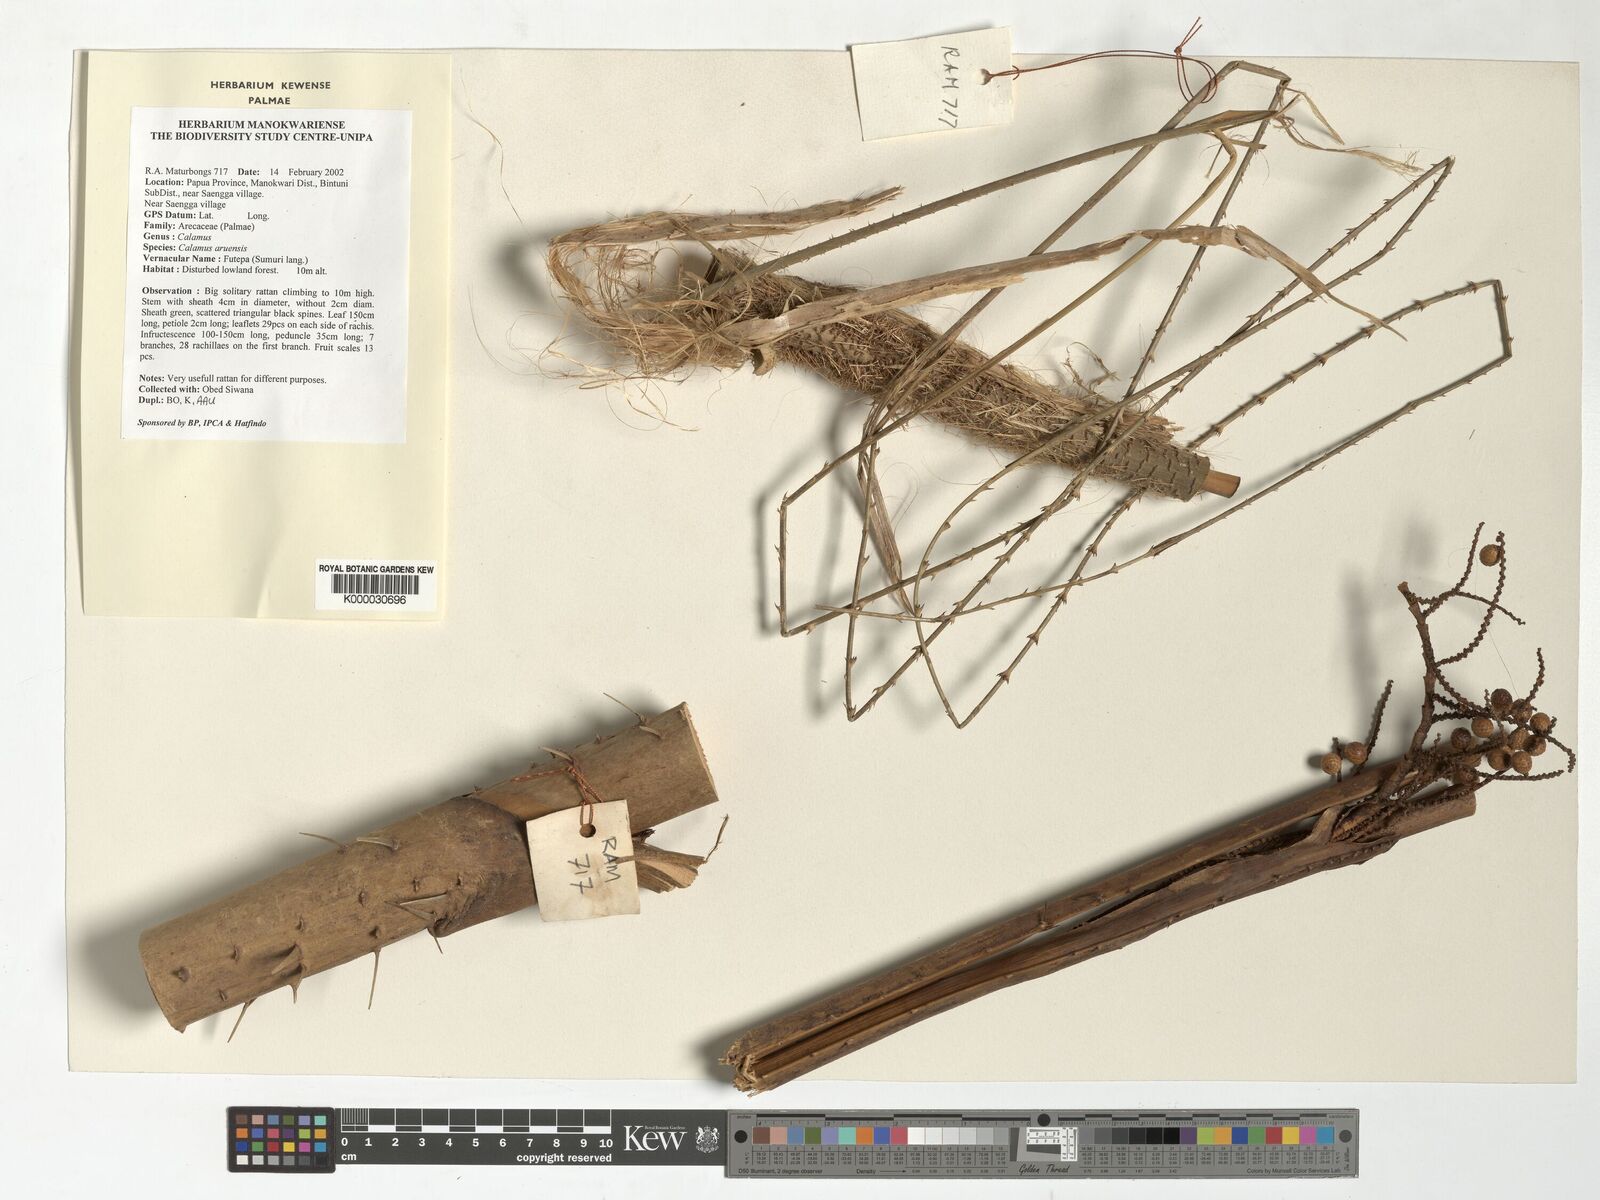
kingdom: Plantae
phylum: Tracheophyta
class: Liliopsida
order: Arecales
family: Arecaceae
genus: Calamus
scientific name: Calamus aruensis
